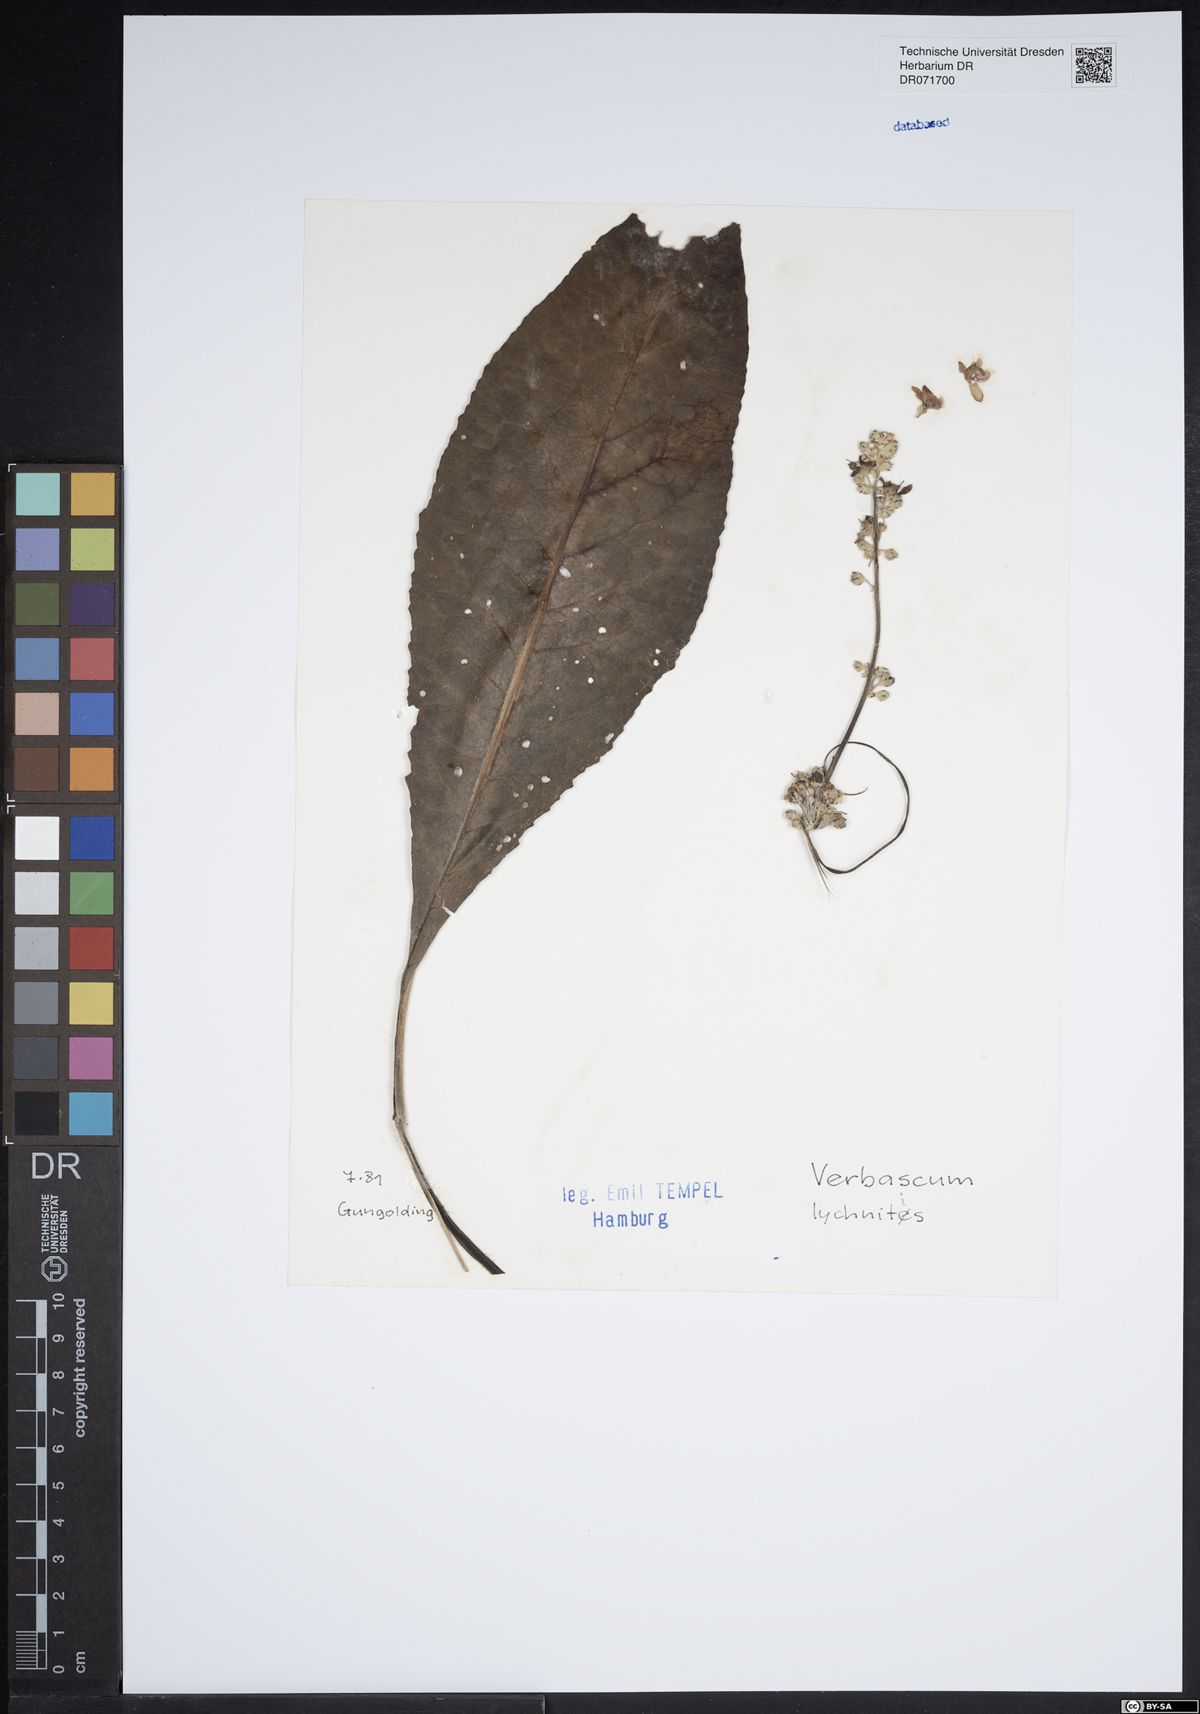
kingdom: Plantae
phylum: Tracheophyta
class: Magnoliopsida
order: Lamiales
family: Scrophulariaceae
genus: Verbascum
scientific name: Verbascum lychnitis
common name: White mullein
